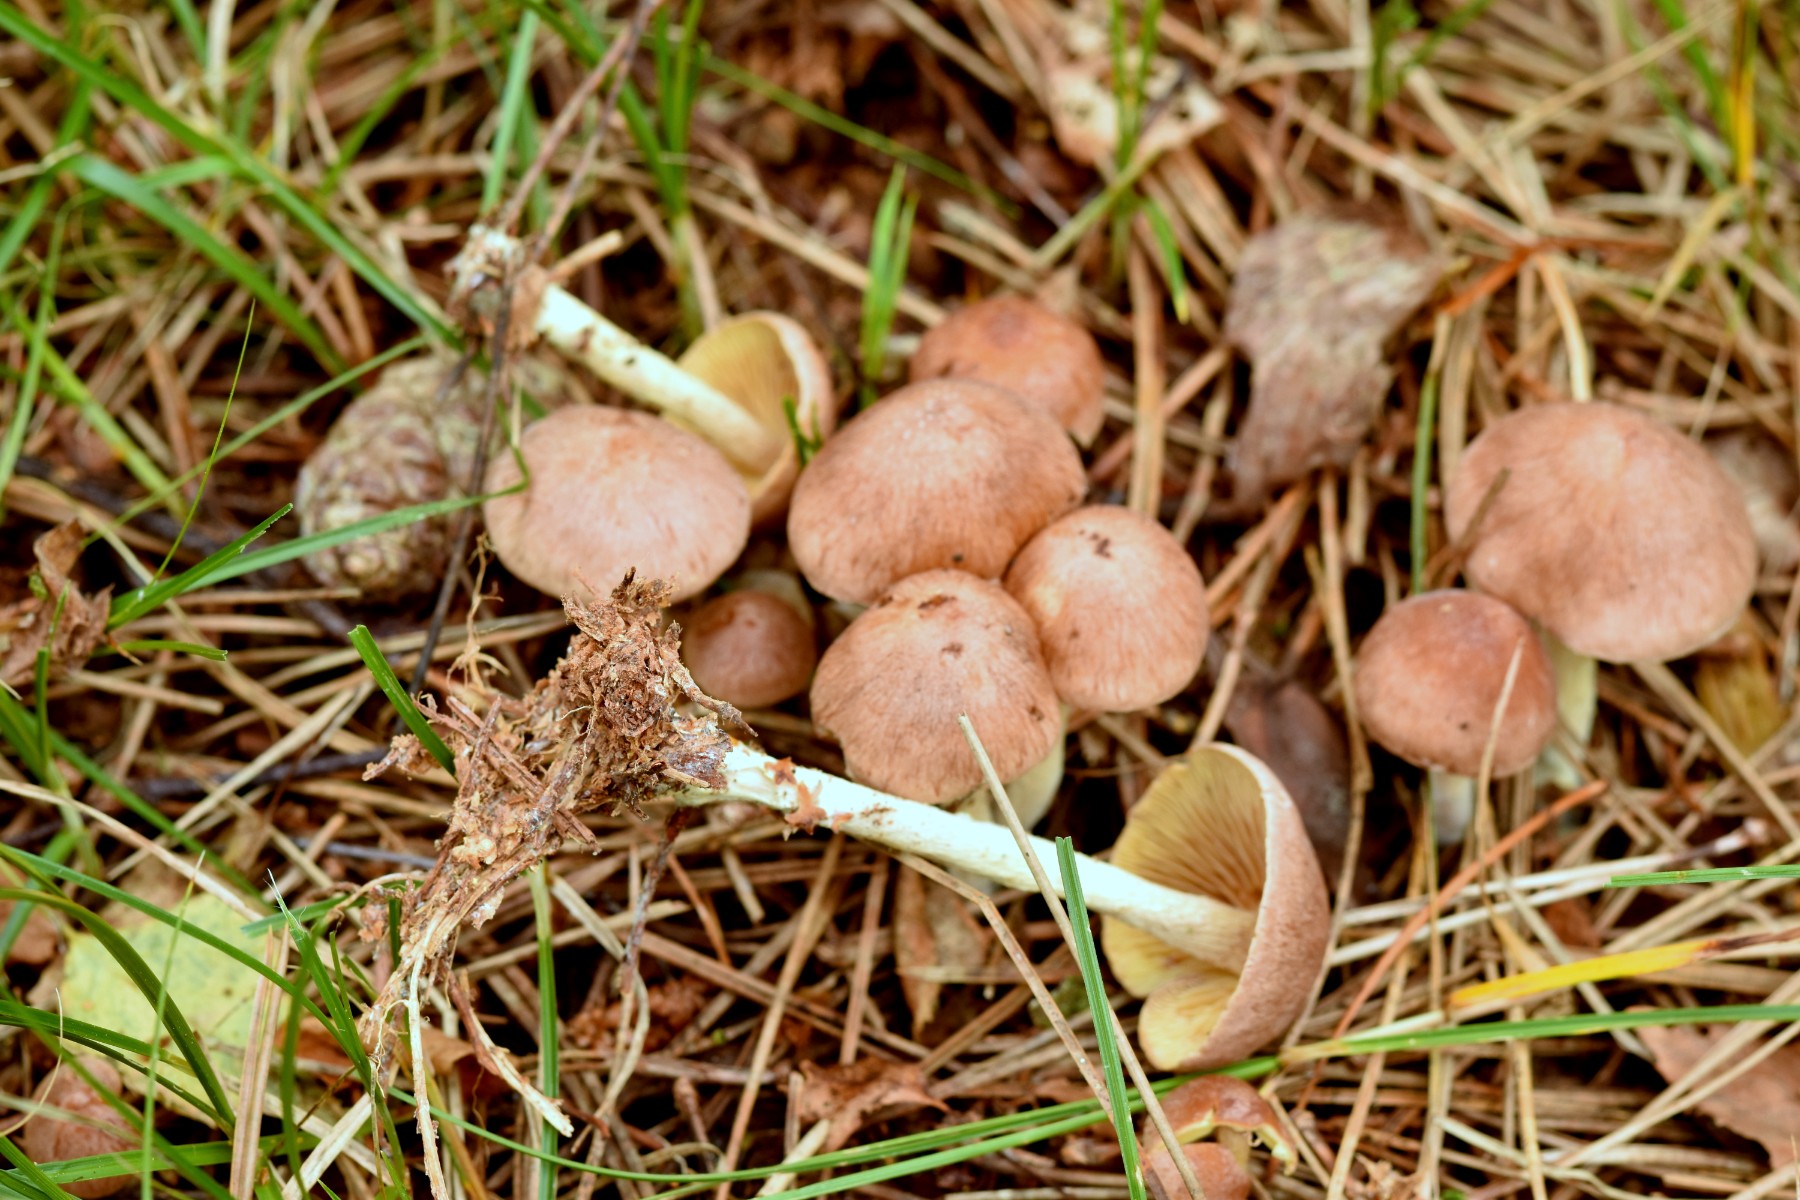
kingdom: Fungi
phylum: Basidiomycota
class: Agaricomycetes
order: Agaricales
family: Omphalotaceae
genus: Collybiopsis
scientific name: Collybiopsis peronata
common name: bestøvlet fladhat
